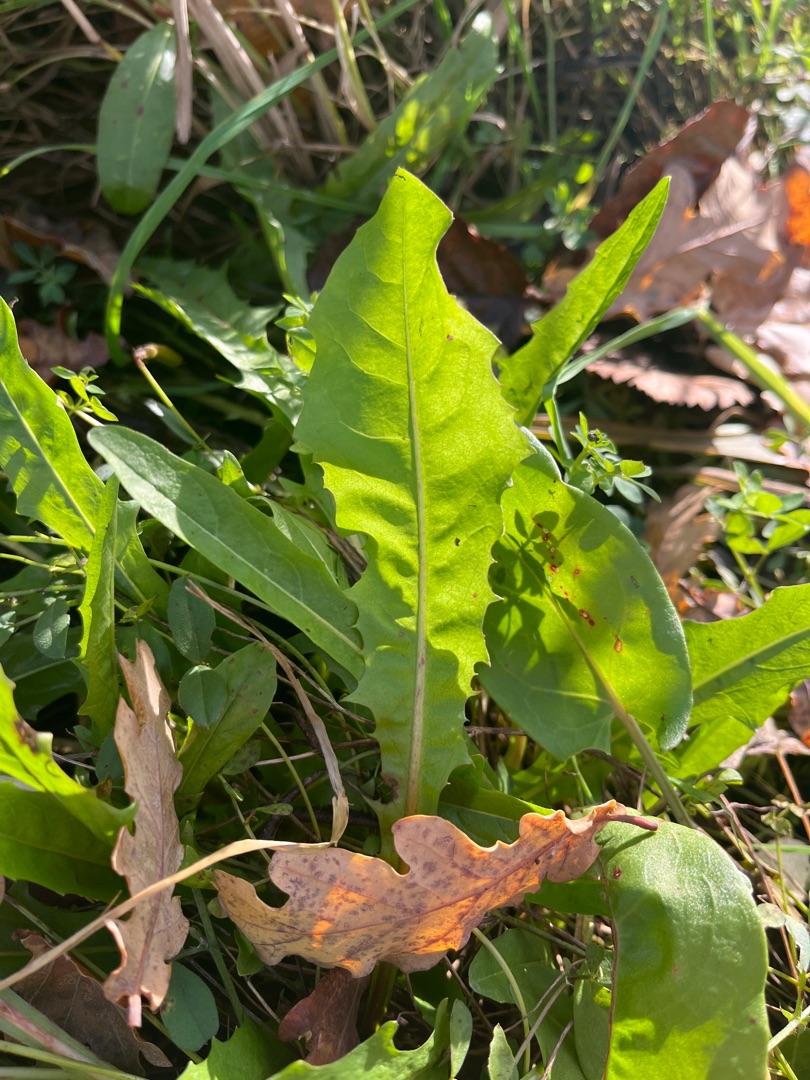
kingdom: Plantae
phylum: Tracheophyta
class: Magnoliopsida
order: Asterales
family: Asteraceae
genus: Taraxacum
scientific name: Taraxacum
